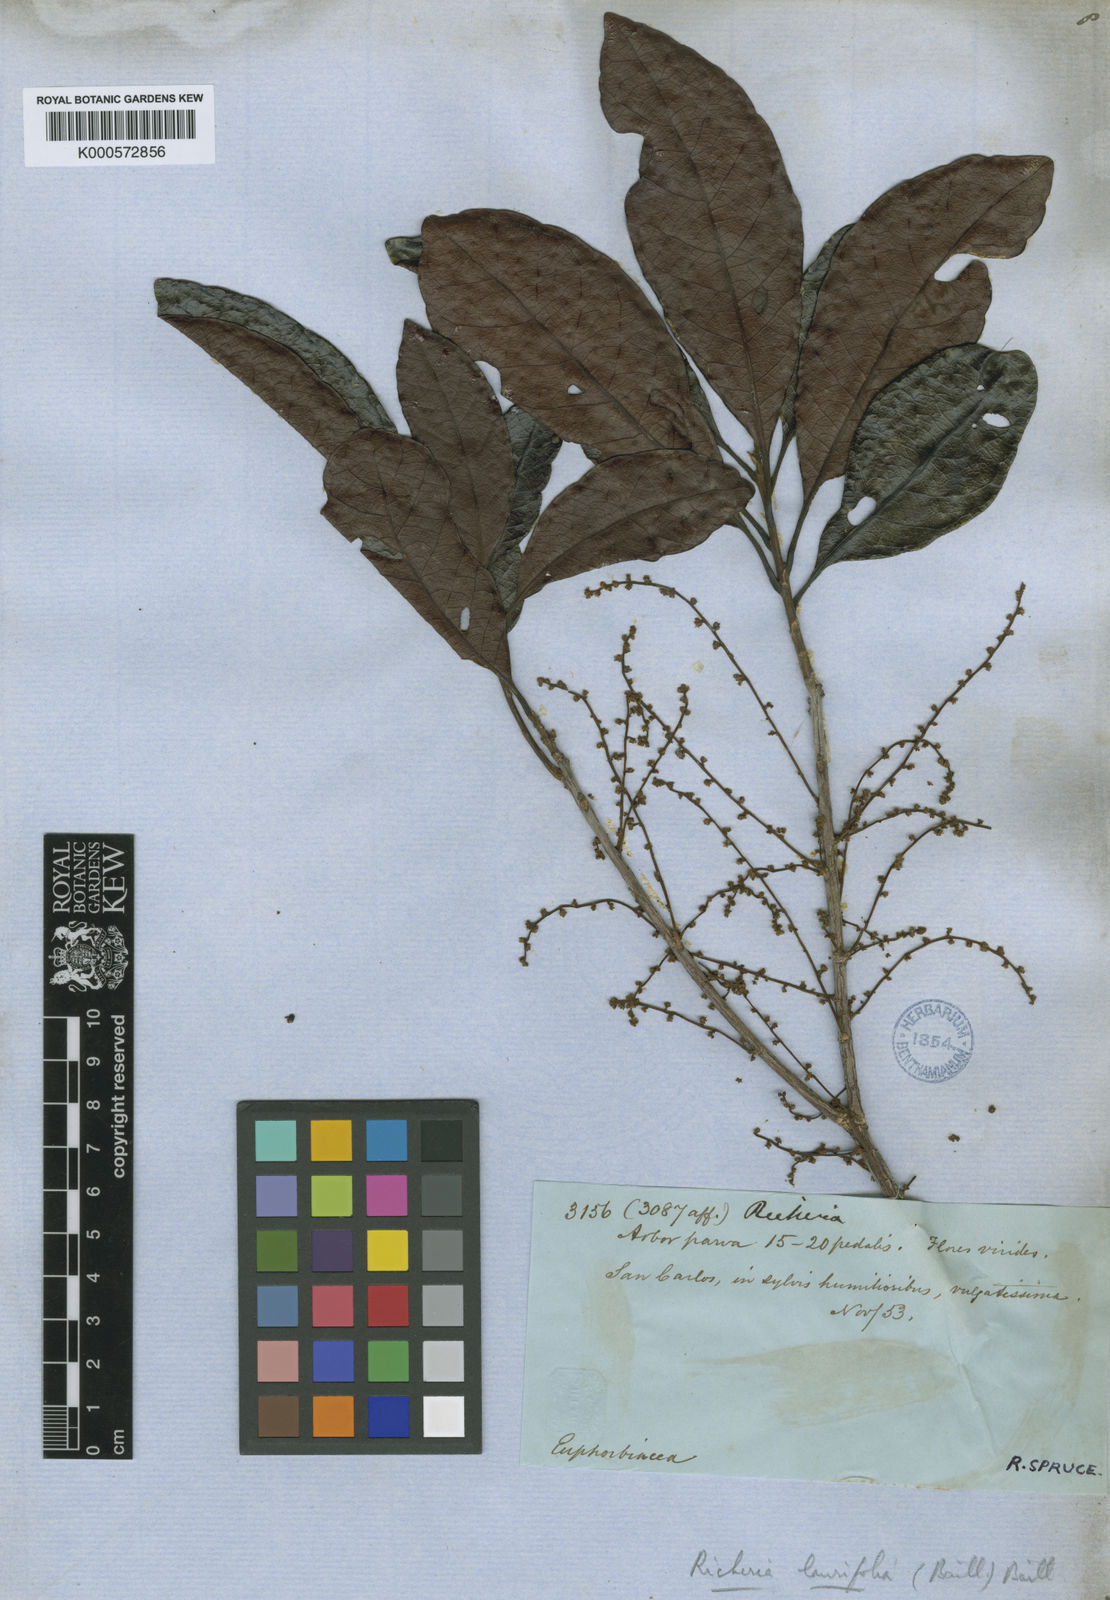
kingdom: Plantae
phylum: Tracheophyta
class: Magnoliopsida
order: Malpighiales
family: Phyllanthaceae
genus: Richeria
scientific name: Richeria
